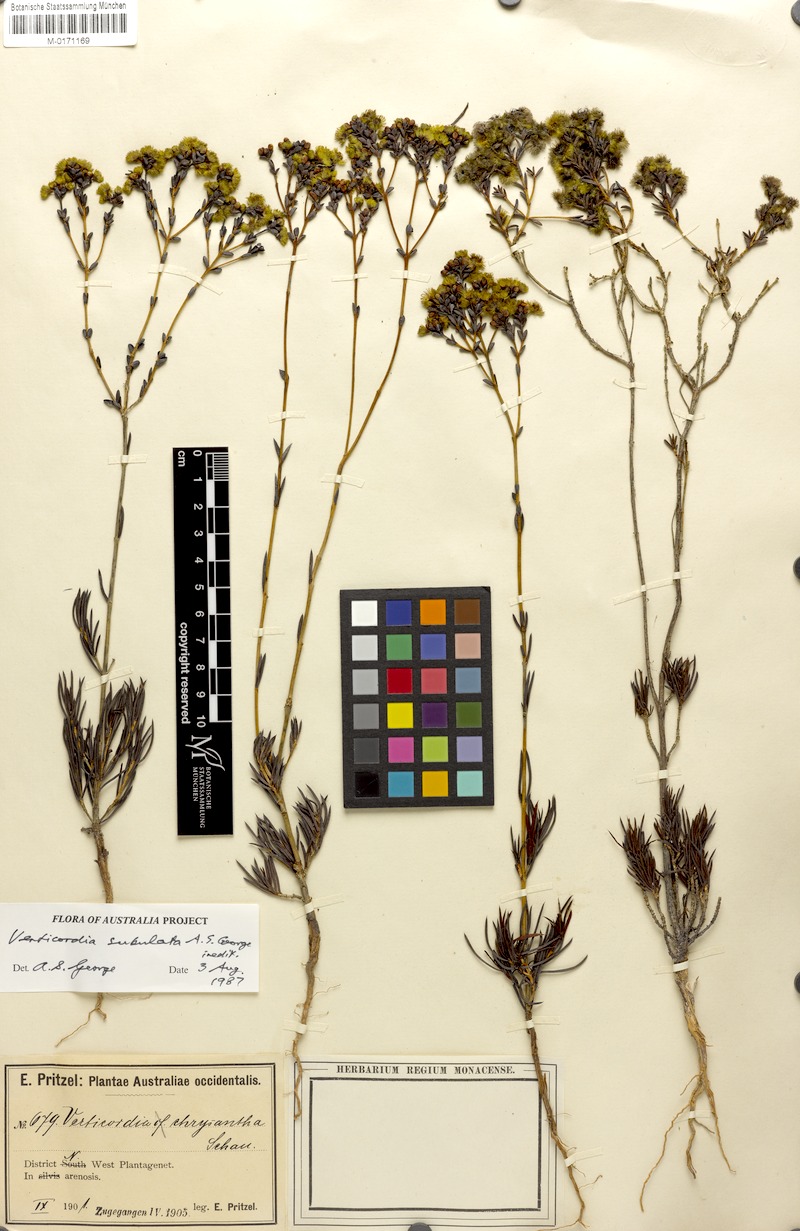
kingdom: Plantae
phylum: Tracheophyta
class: Magnoliopsida
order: Myrtales
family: Myrtaceae
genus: Verticordia
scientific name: Verticordia subulata
